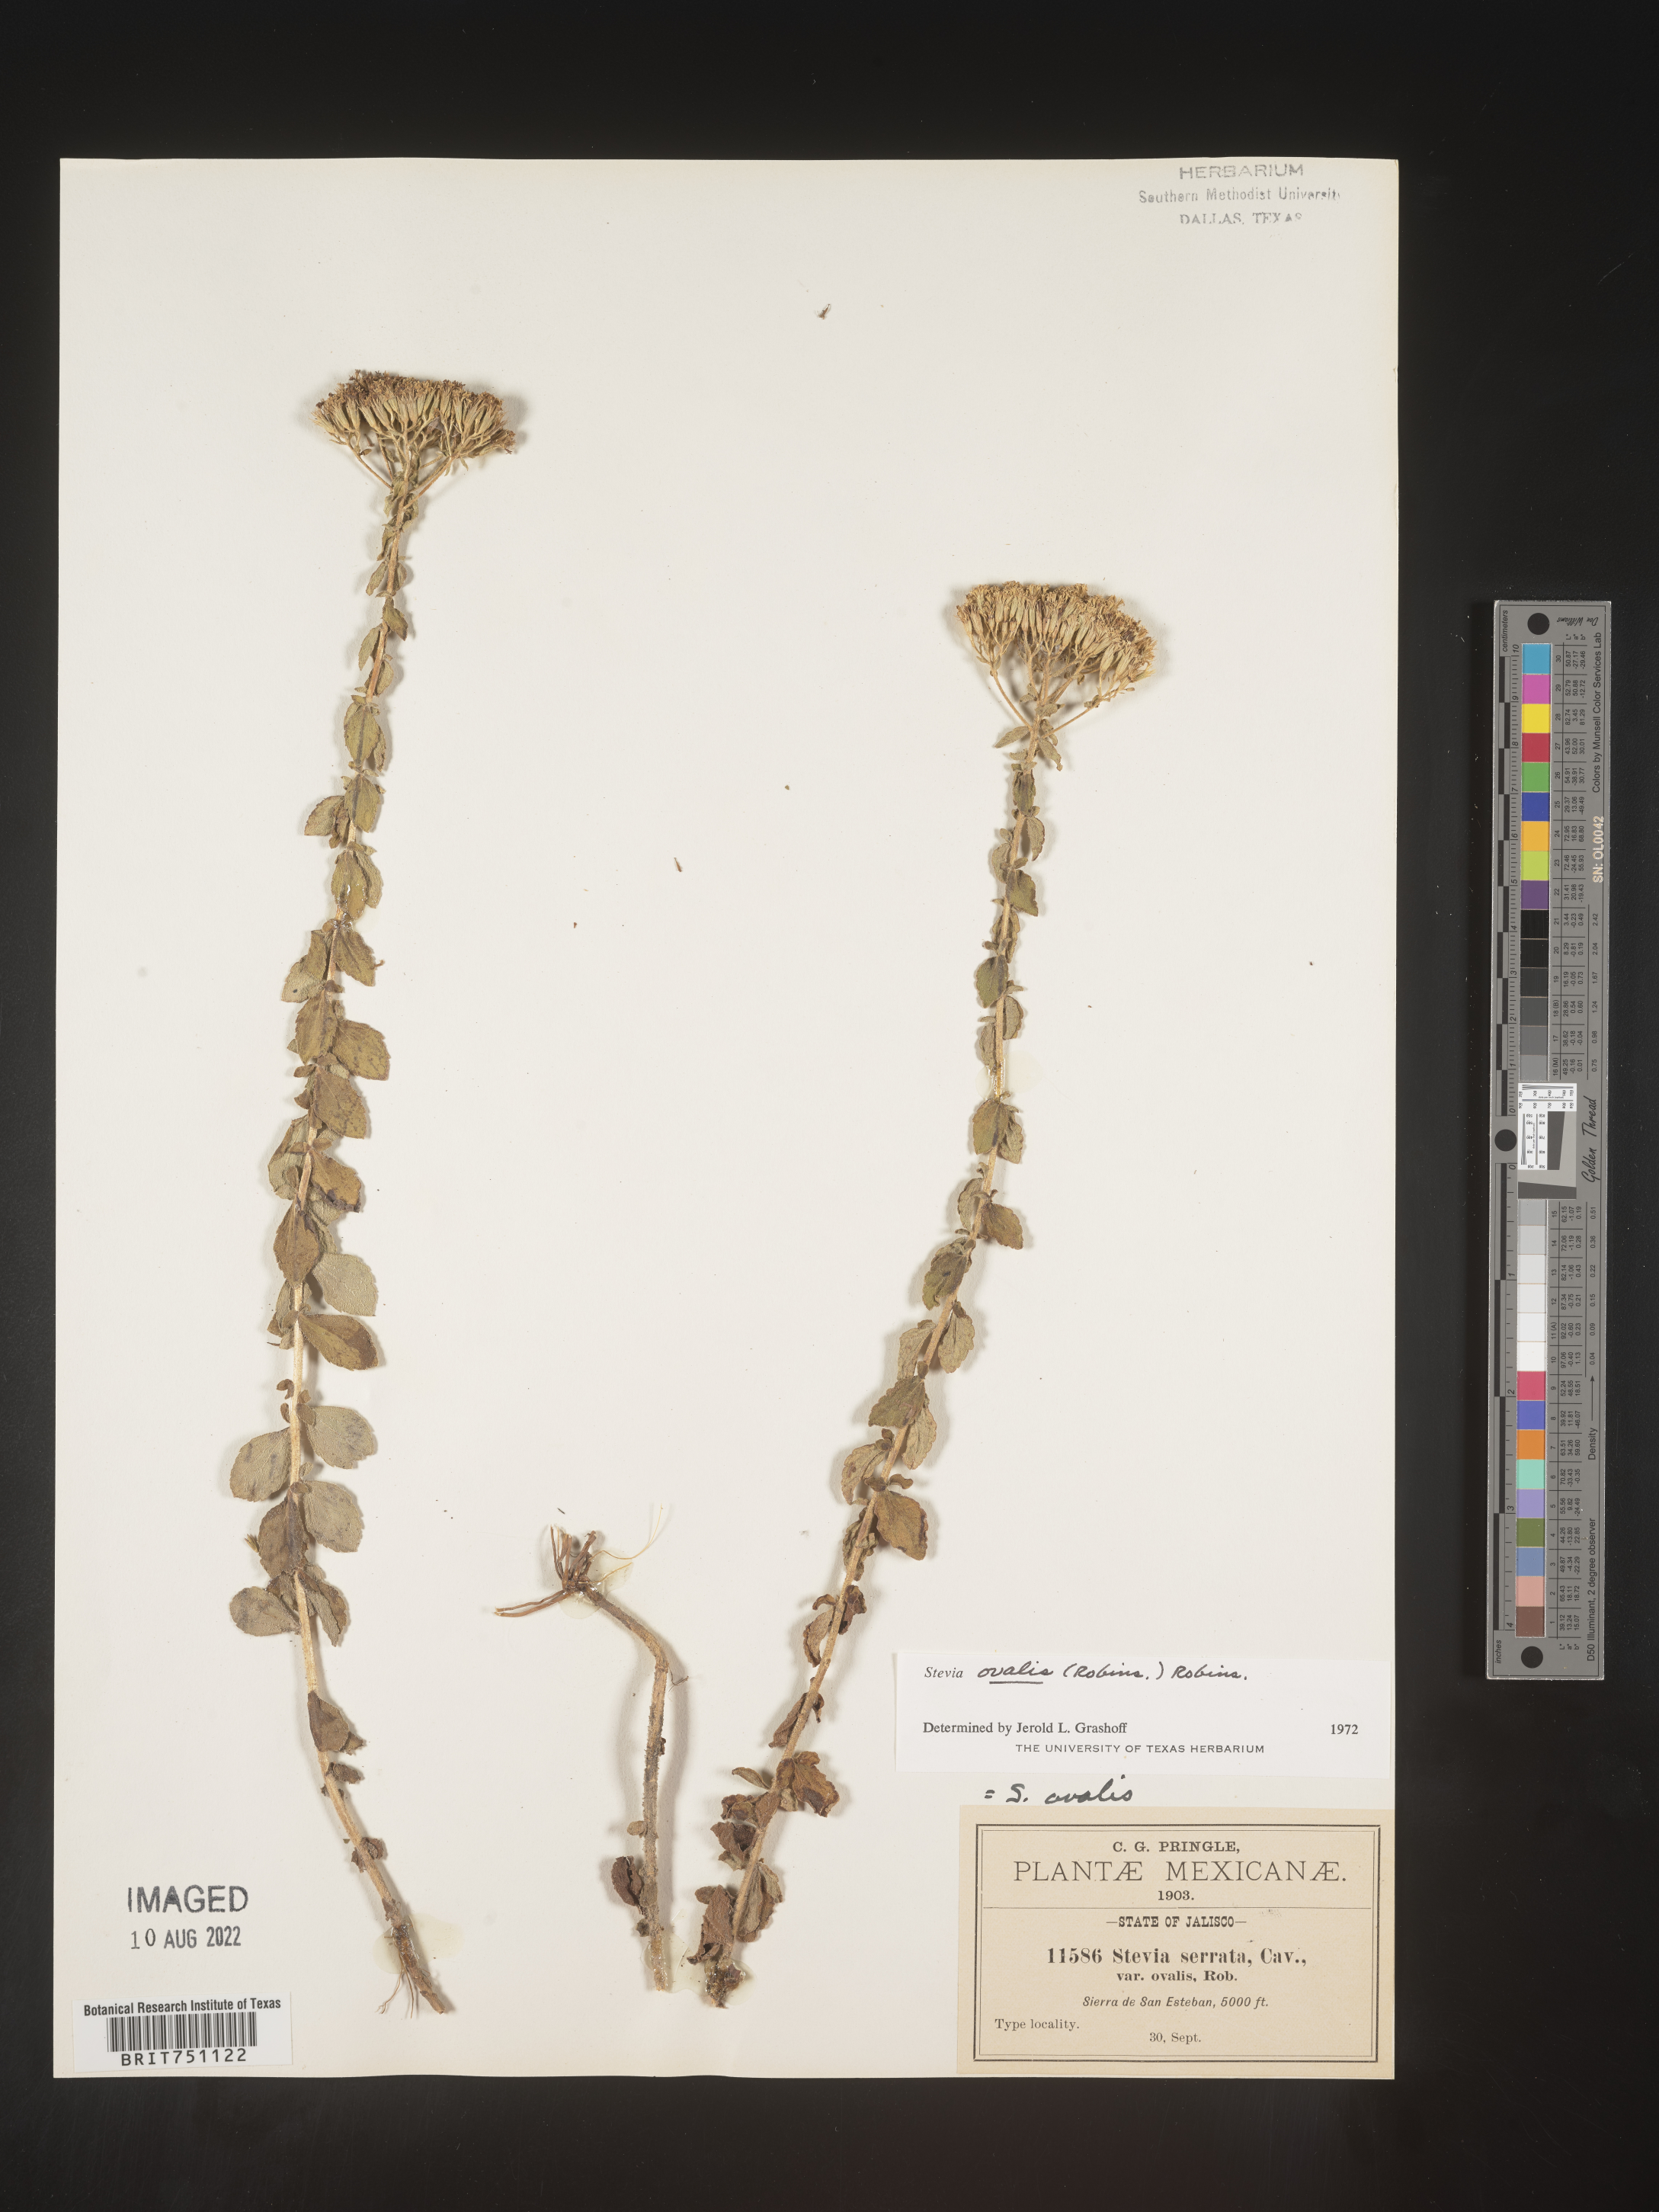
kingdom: Plantae
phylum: Tracheophyta
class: Magnoliopsida
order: Asterales
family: Asteraceae
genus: Stevia
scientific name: Stevia
